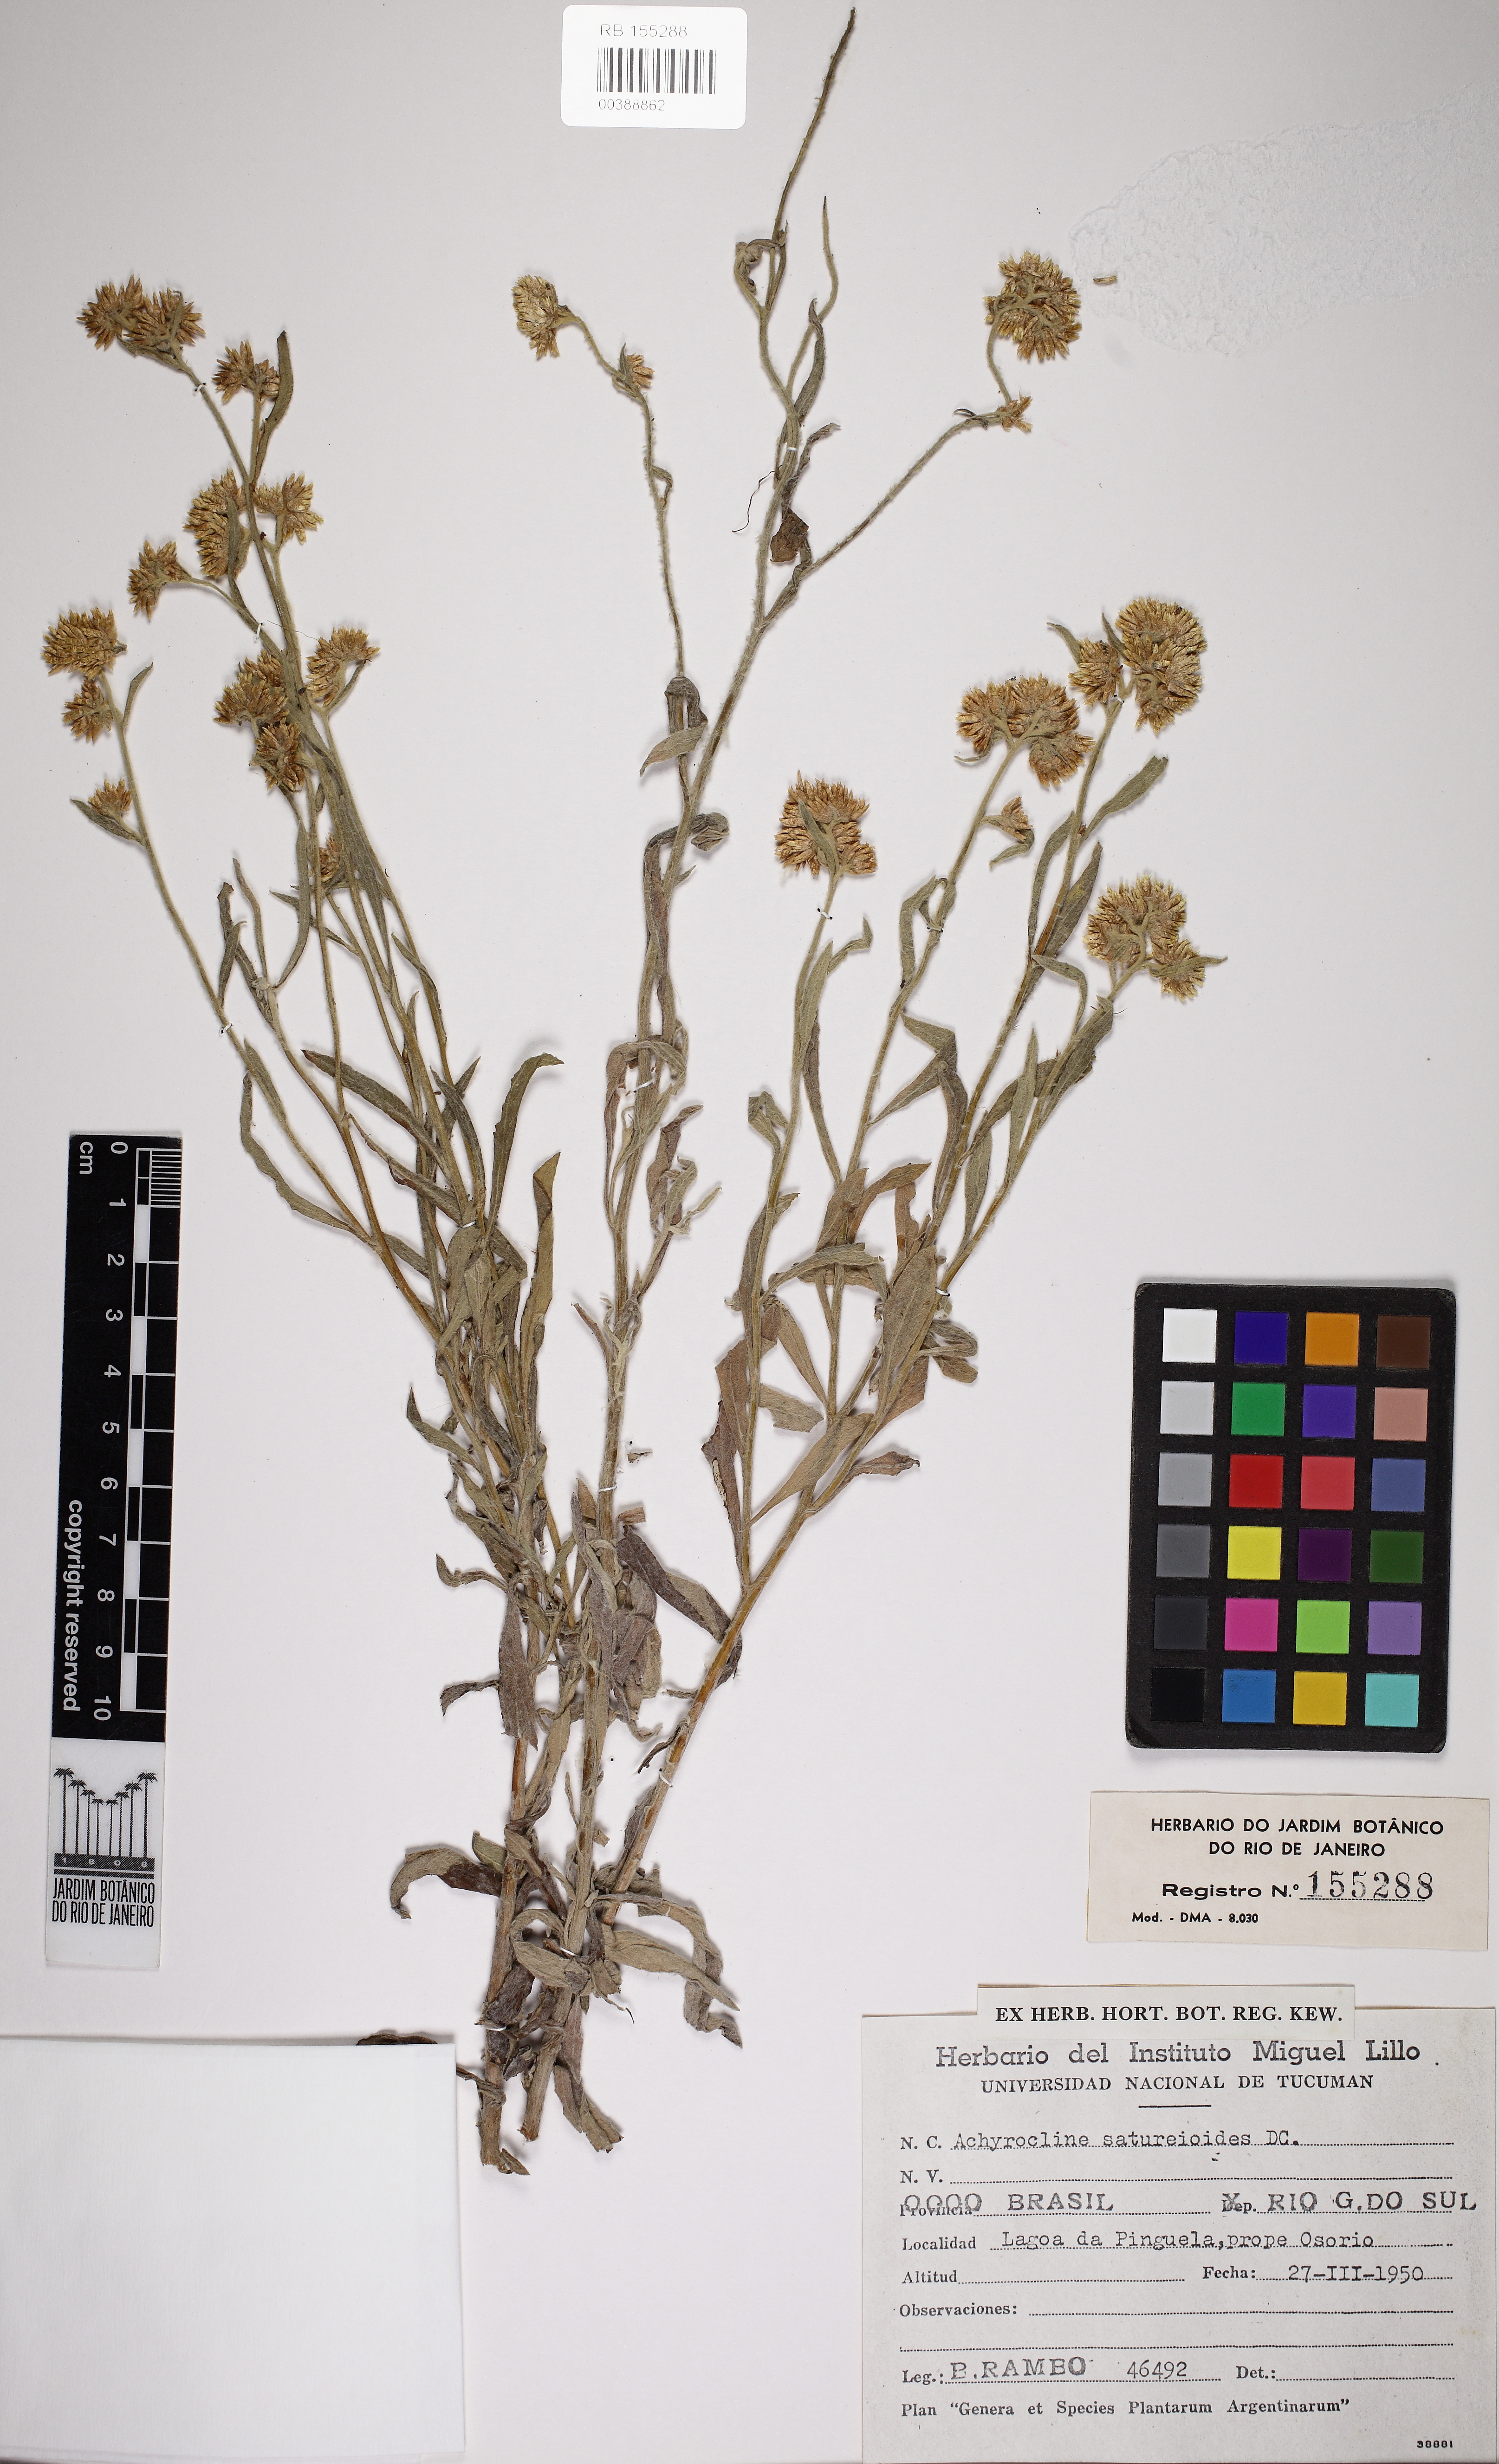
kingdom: Plantae
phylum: Tracheophyta
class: Magnoliopsida
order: Asterales
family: Asteraceae
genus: Achyrocline
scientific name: Achyrocline satureioides
